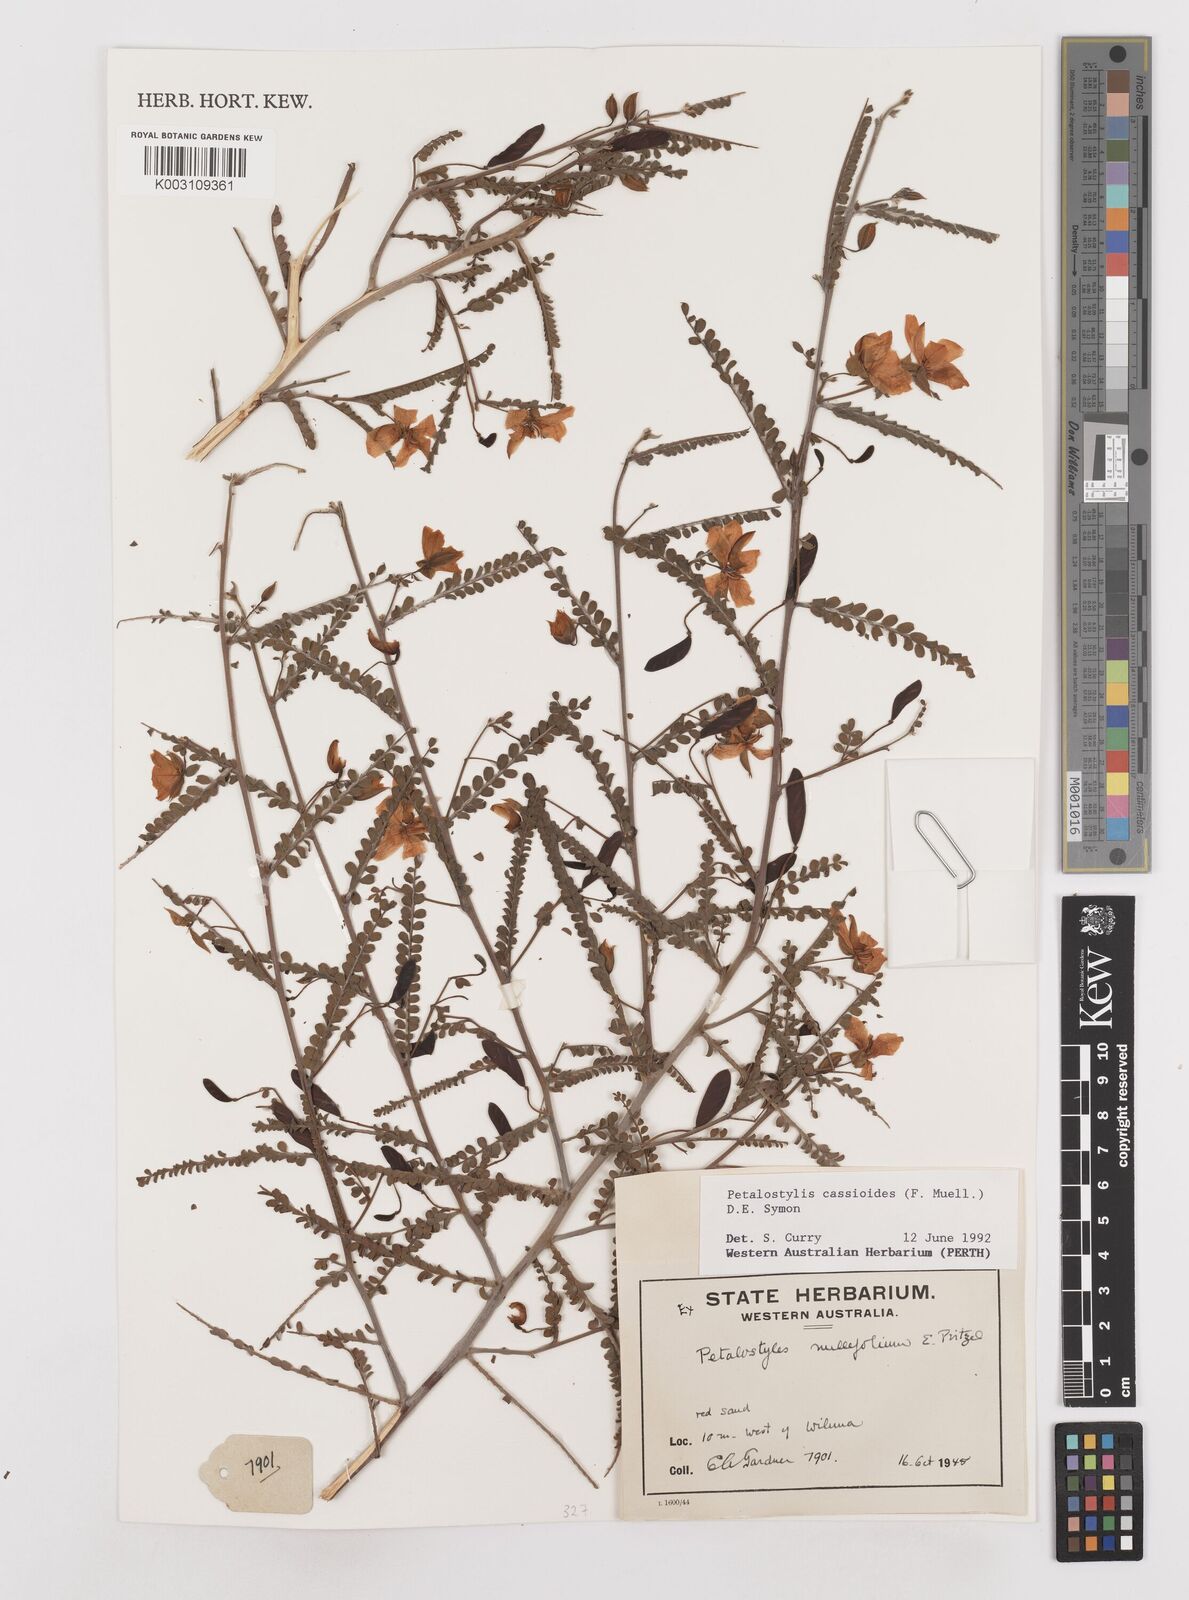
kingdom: Plantae
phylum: Tracheophyta
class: Magnoliopsida
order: Fabales
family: Fabaceae
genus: Petalostylis
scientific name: Petalostylis cassioides
